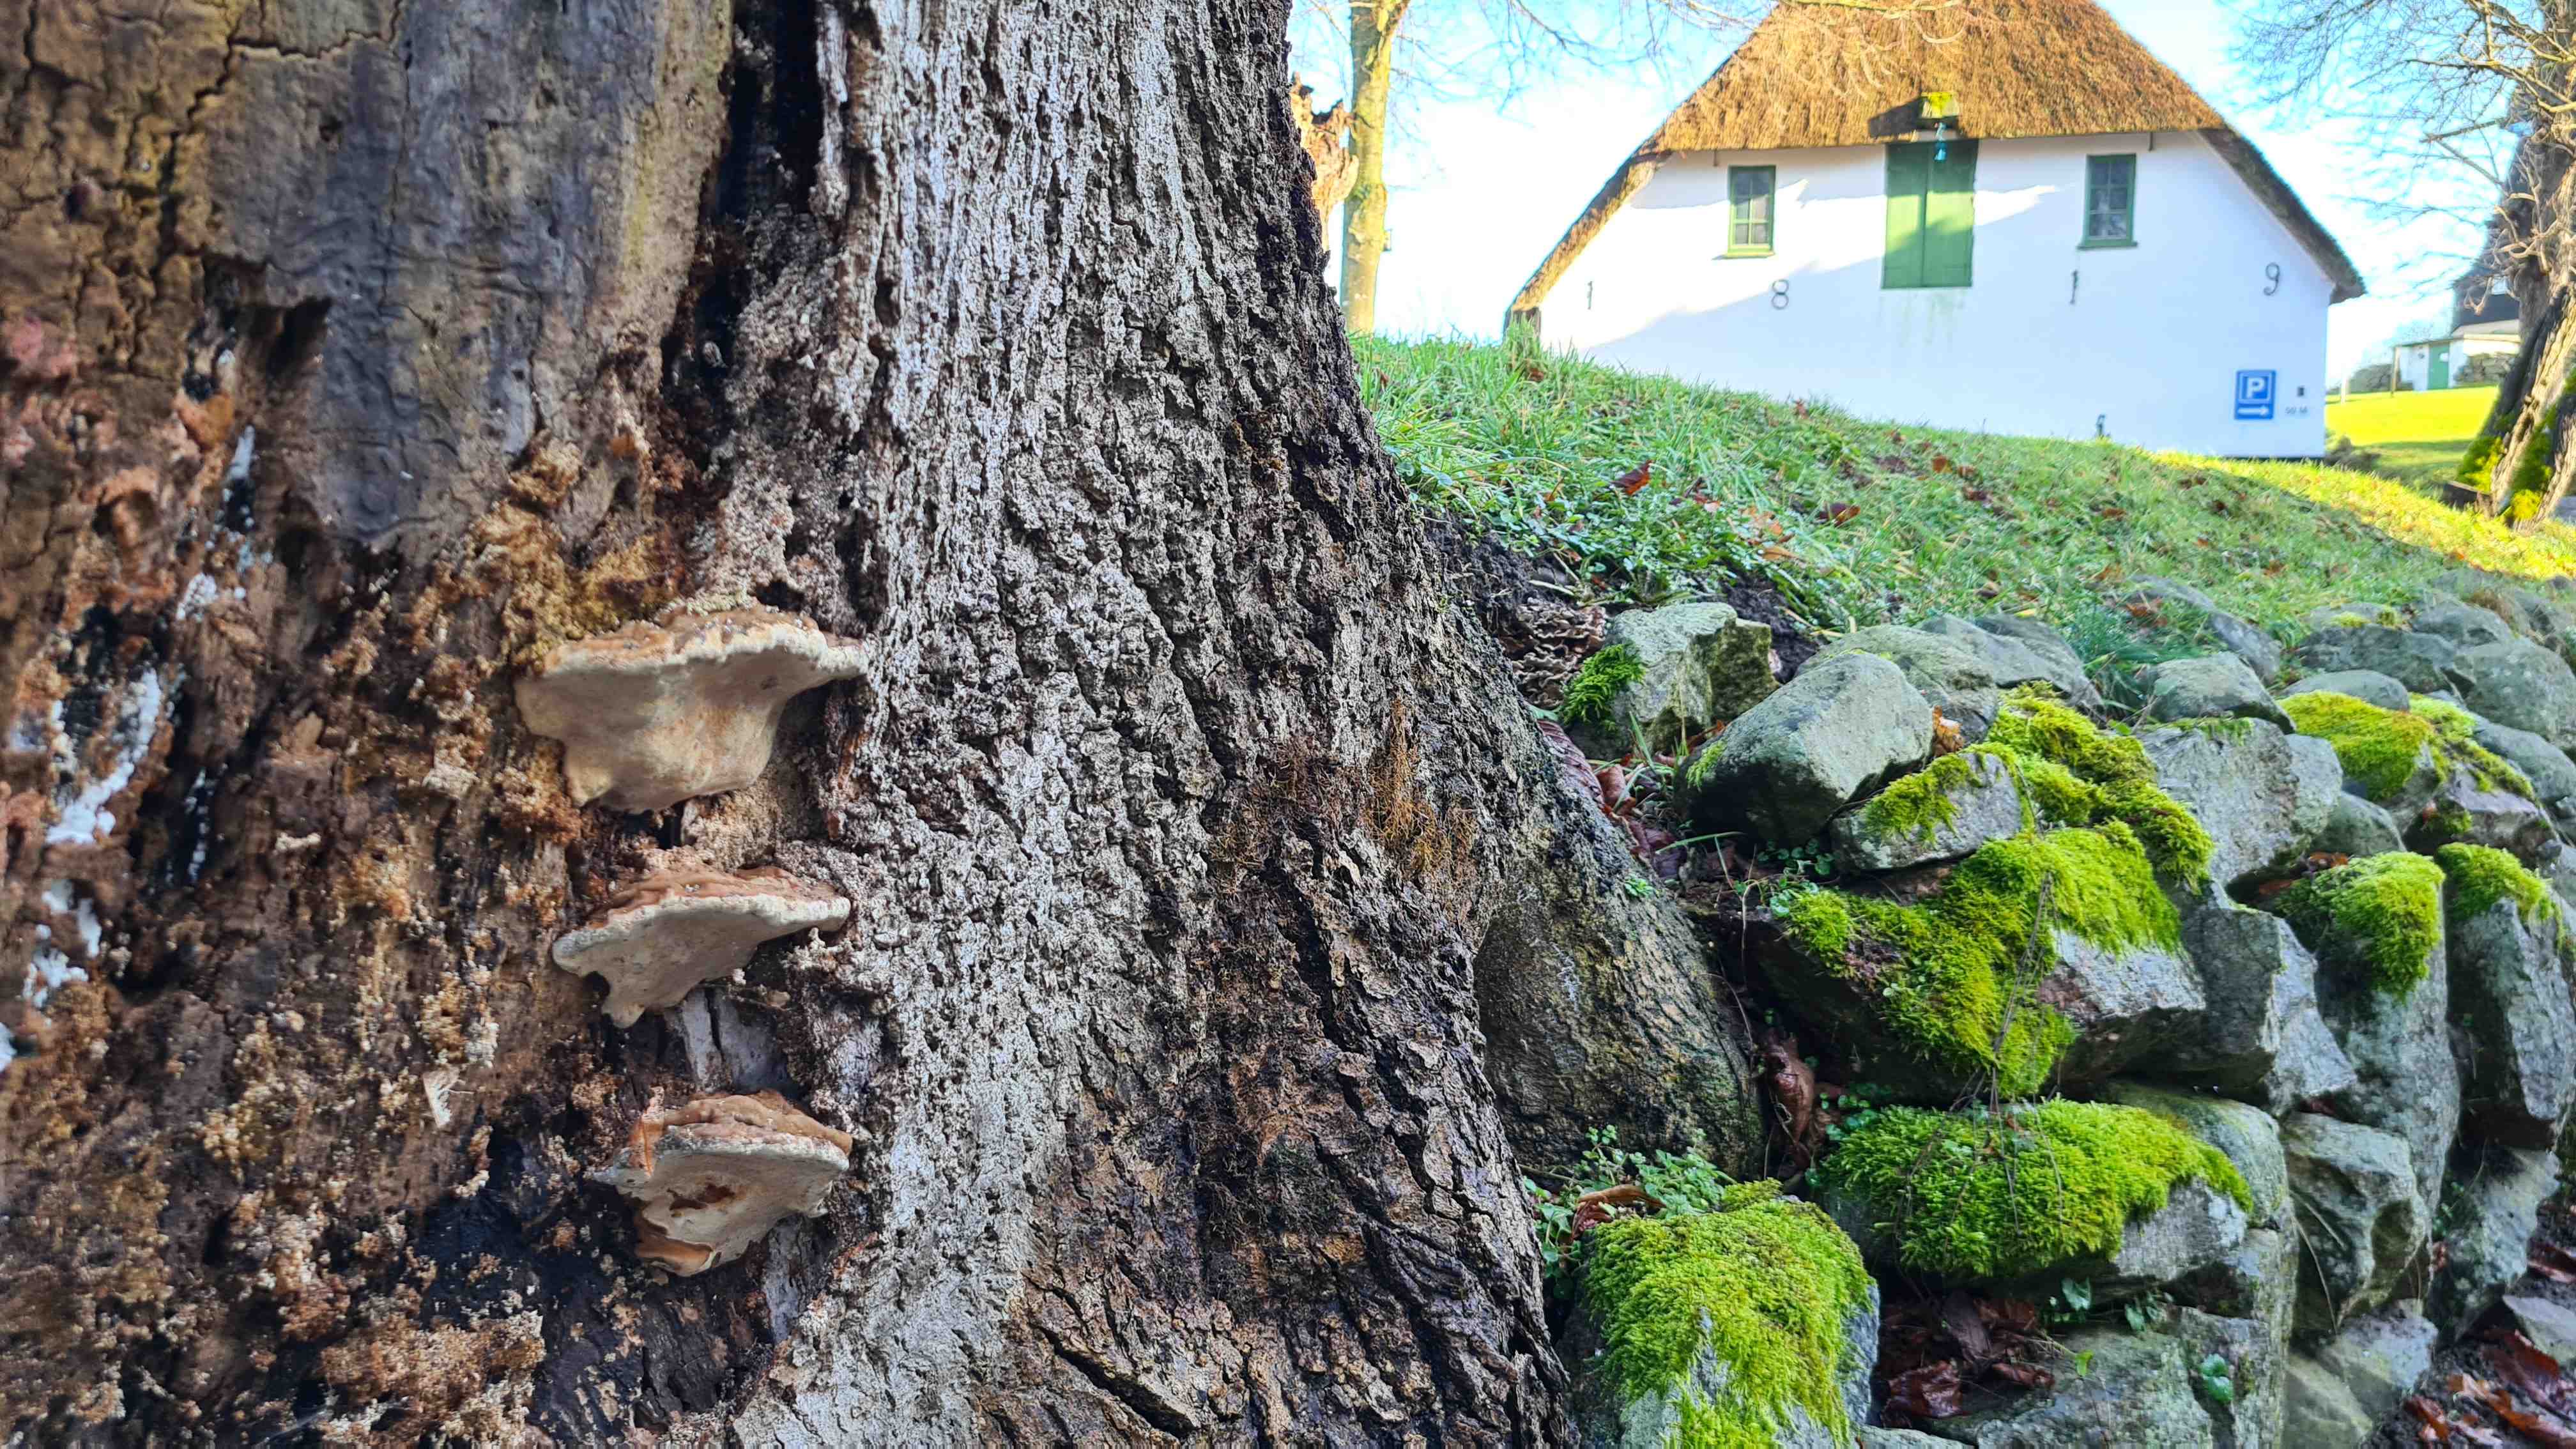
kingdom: Fungi
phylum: Basidiomycota
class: Agaricomycetes
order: Polyporales
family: Polyporaceae
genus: Ganoderma
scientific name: Ganoderma adspersum
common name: grov lakporesvamp
